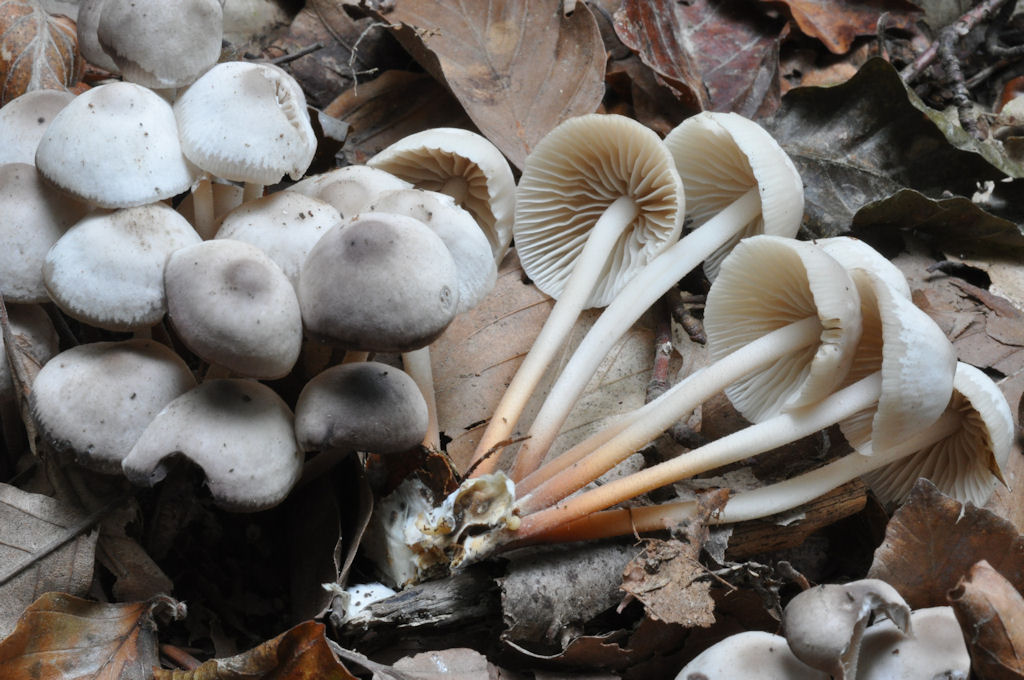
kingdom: Fungi
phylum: Basidiomycota
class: Agaricomycetes
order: Agaricales
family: Marasmiaceae
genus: Marasmius
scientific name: Marasmius wynneae
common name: hvælvet bruskhat
